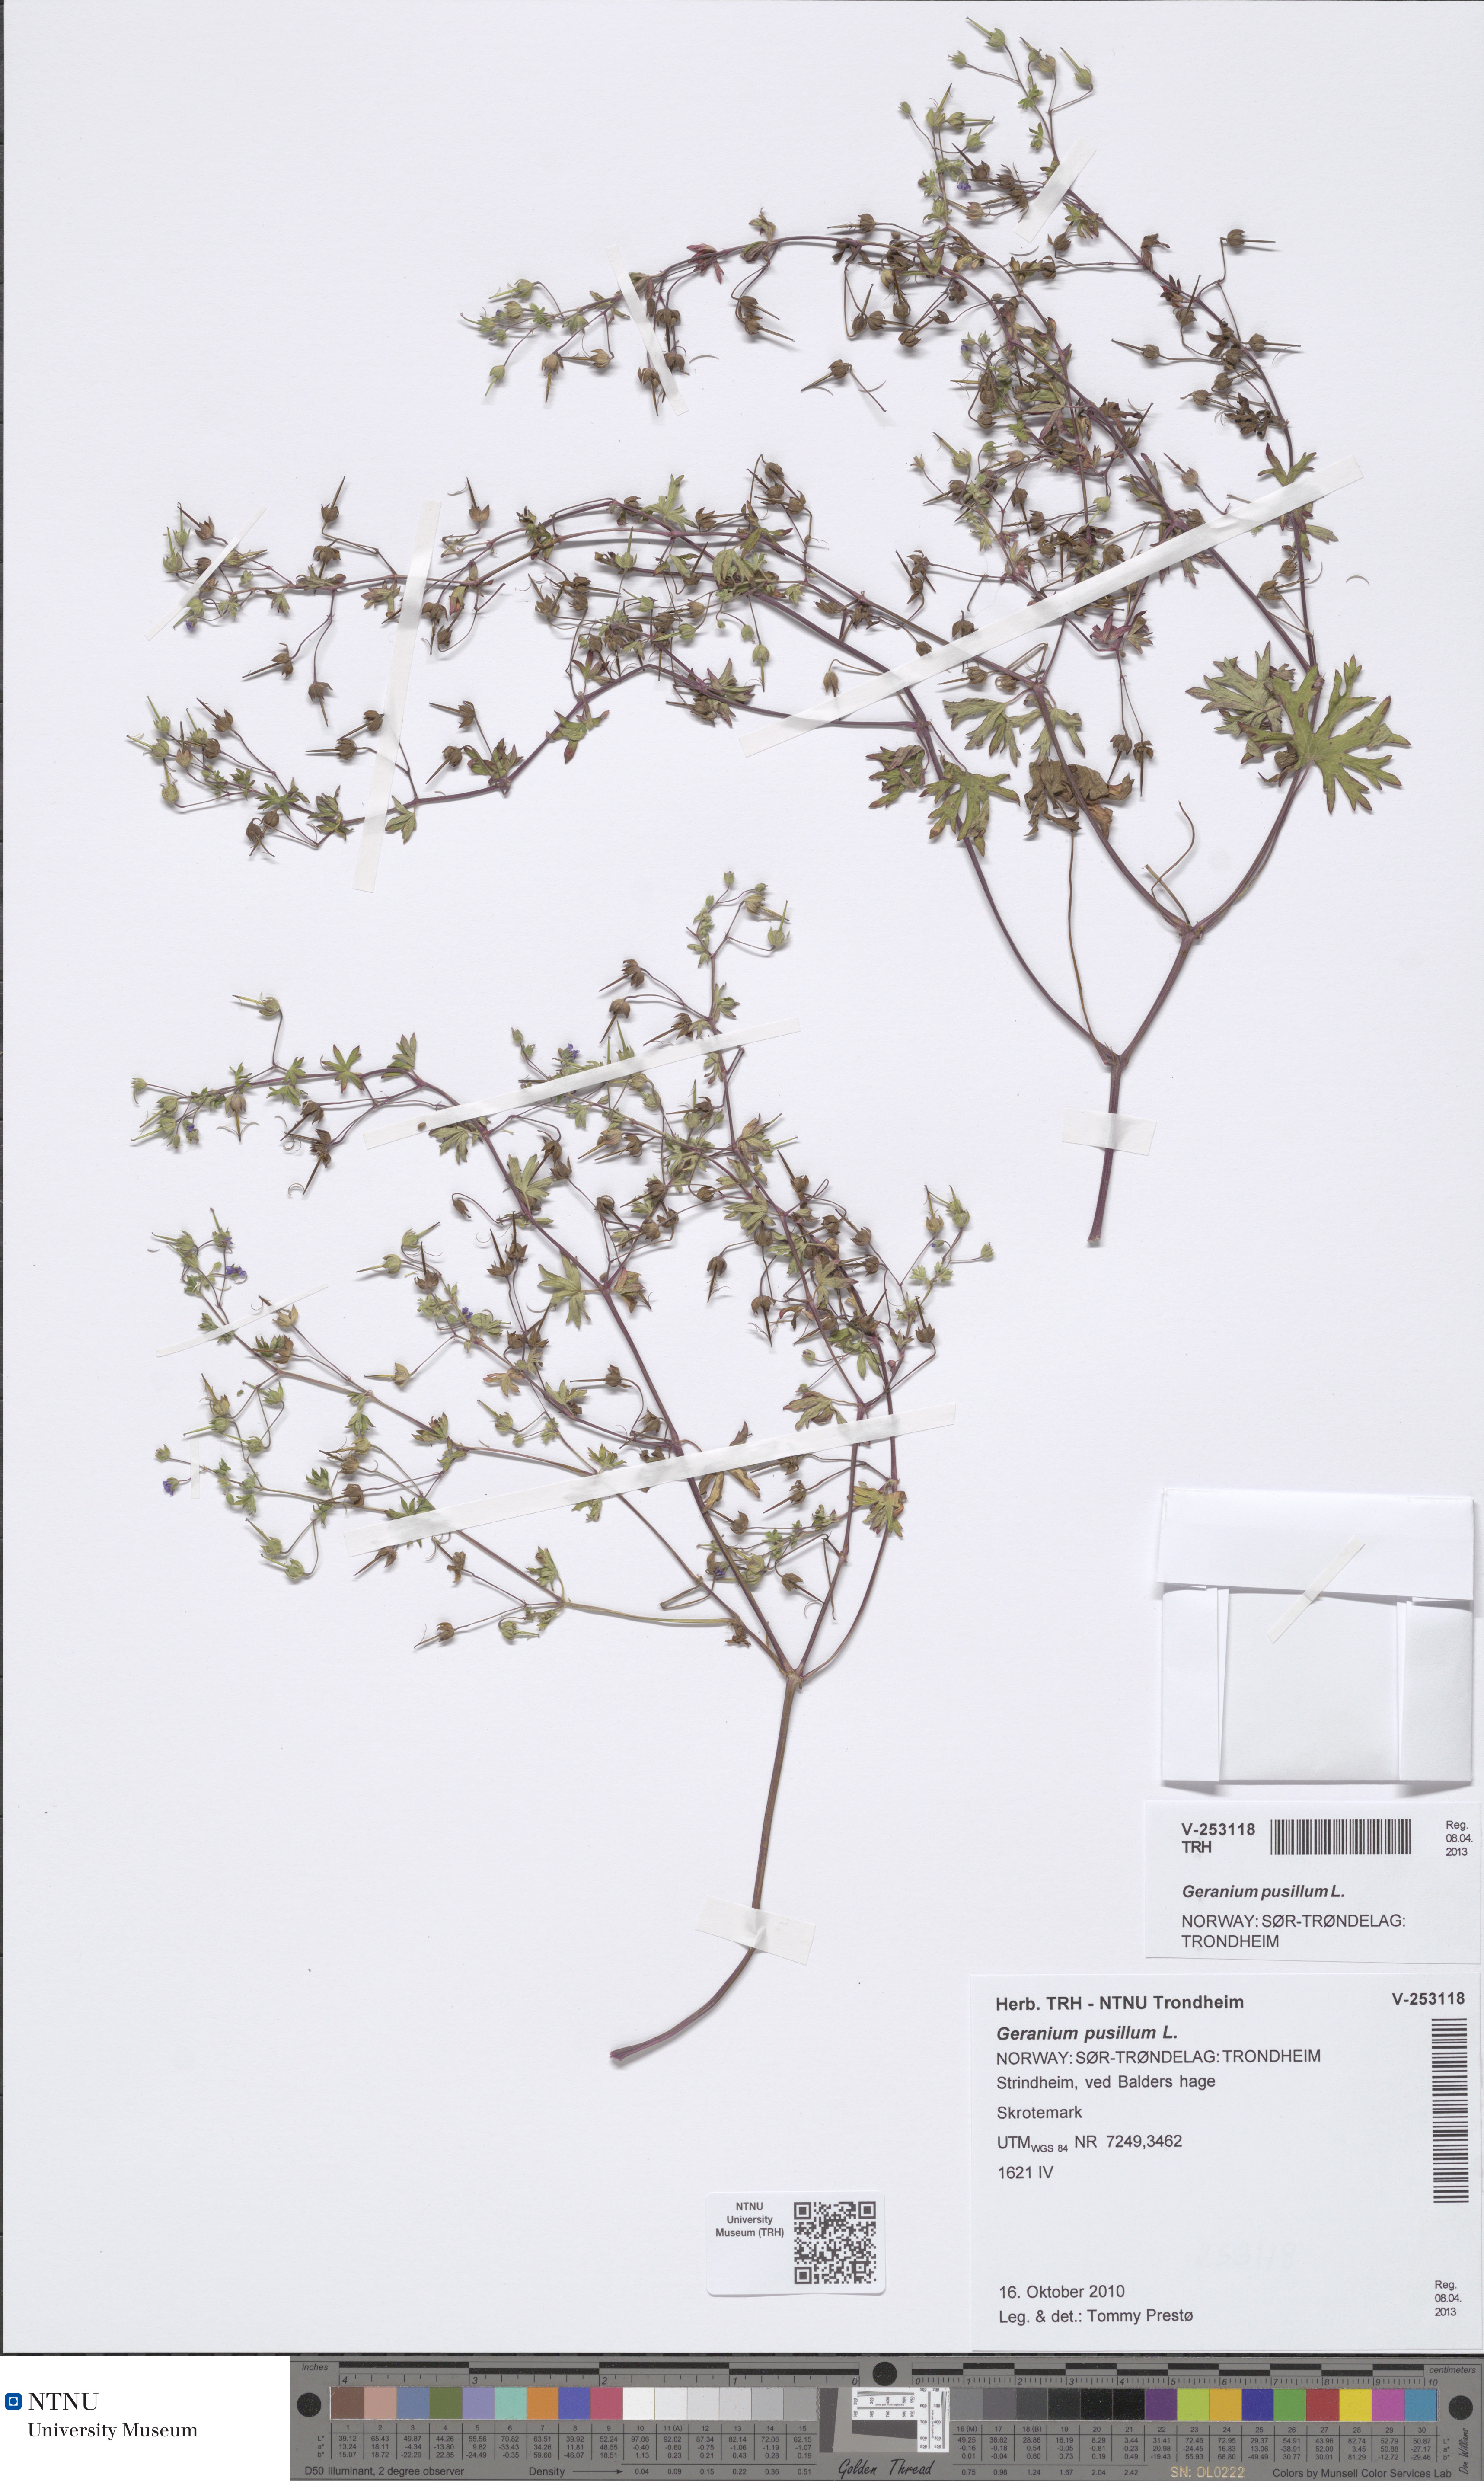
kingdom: Plantae
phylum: Tracheophyta
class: Magnoliopsida
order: Geraniales
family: Geraniaceae
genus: Geranium
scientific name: Geranium pusillum
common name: Small geranium
